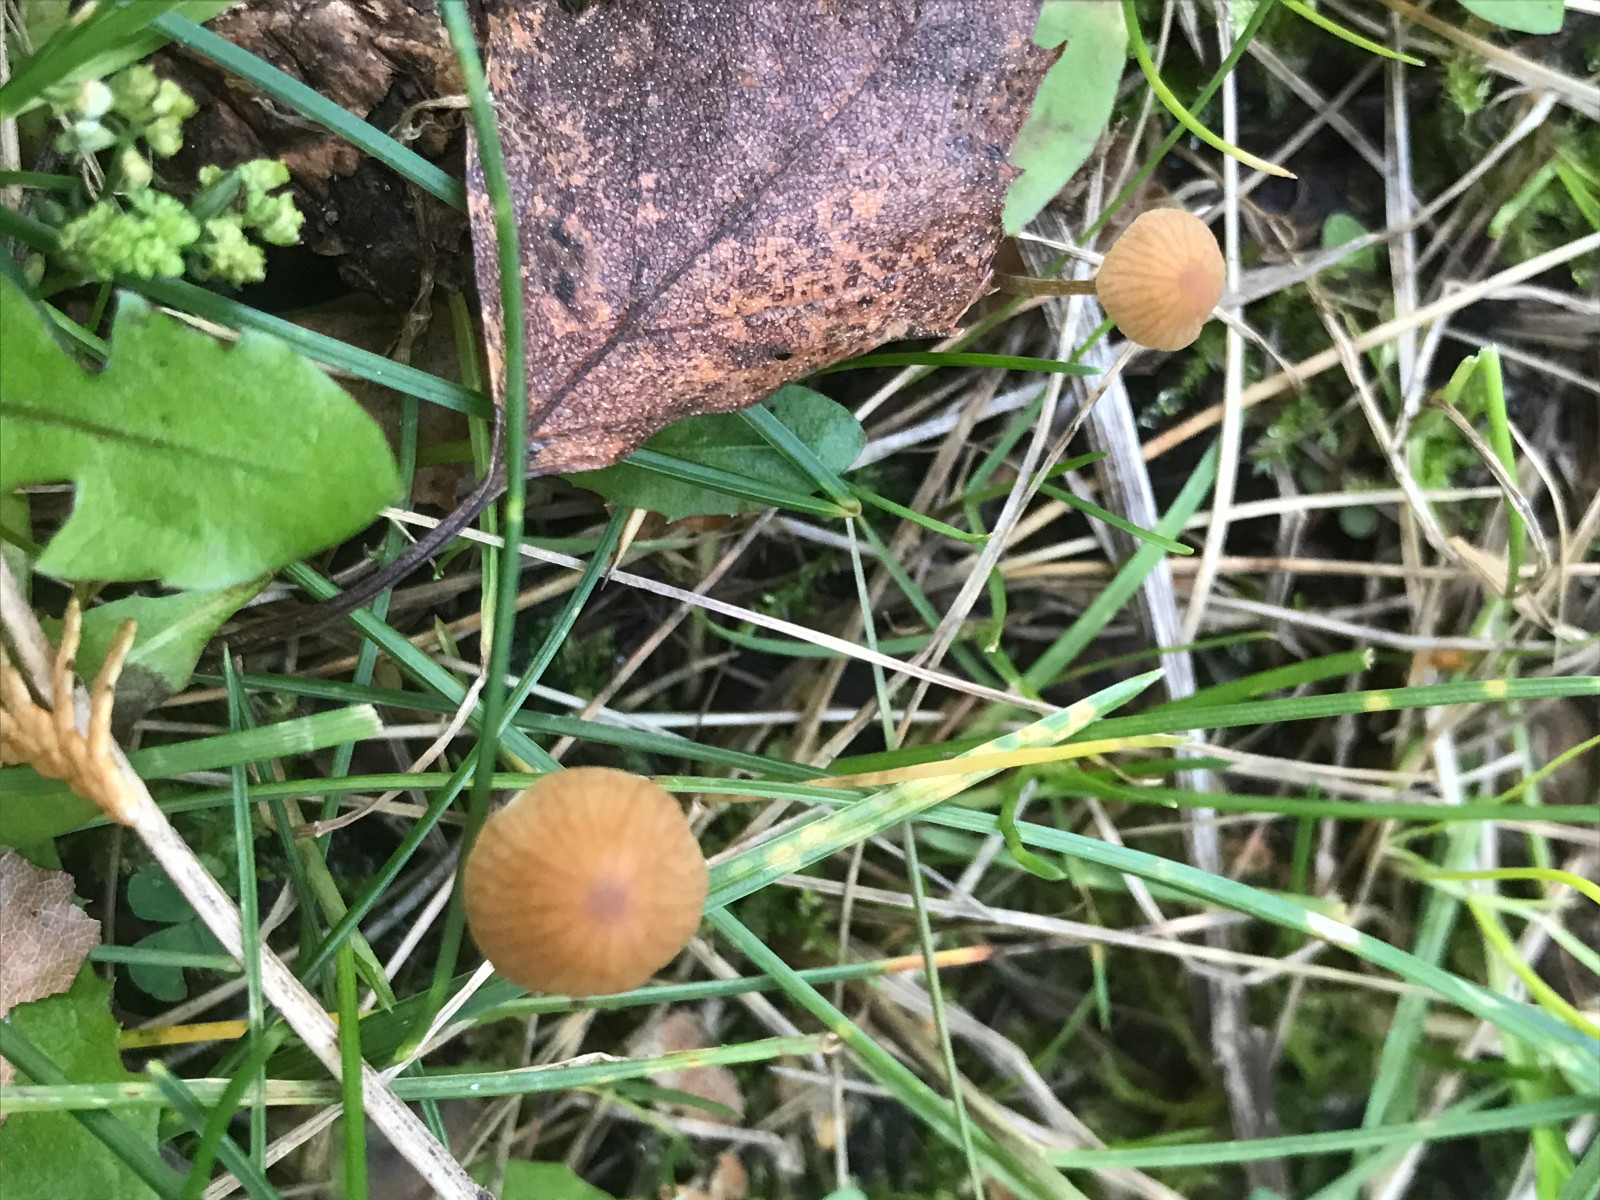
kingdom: Fungi
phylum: Basidiomycota
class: Agaricomycetes
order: Agaricales
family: Hymenogastraceae
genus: Galerina
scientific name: Galerina
